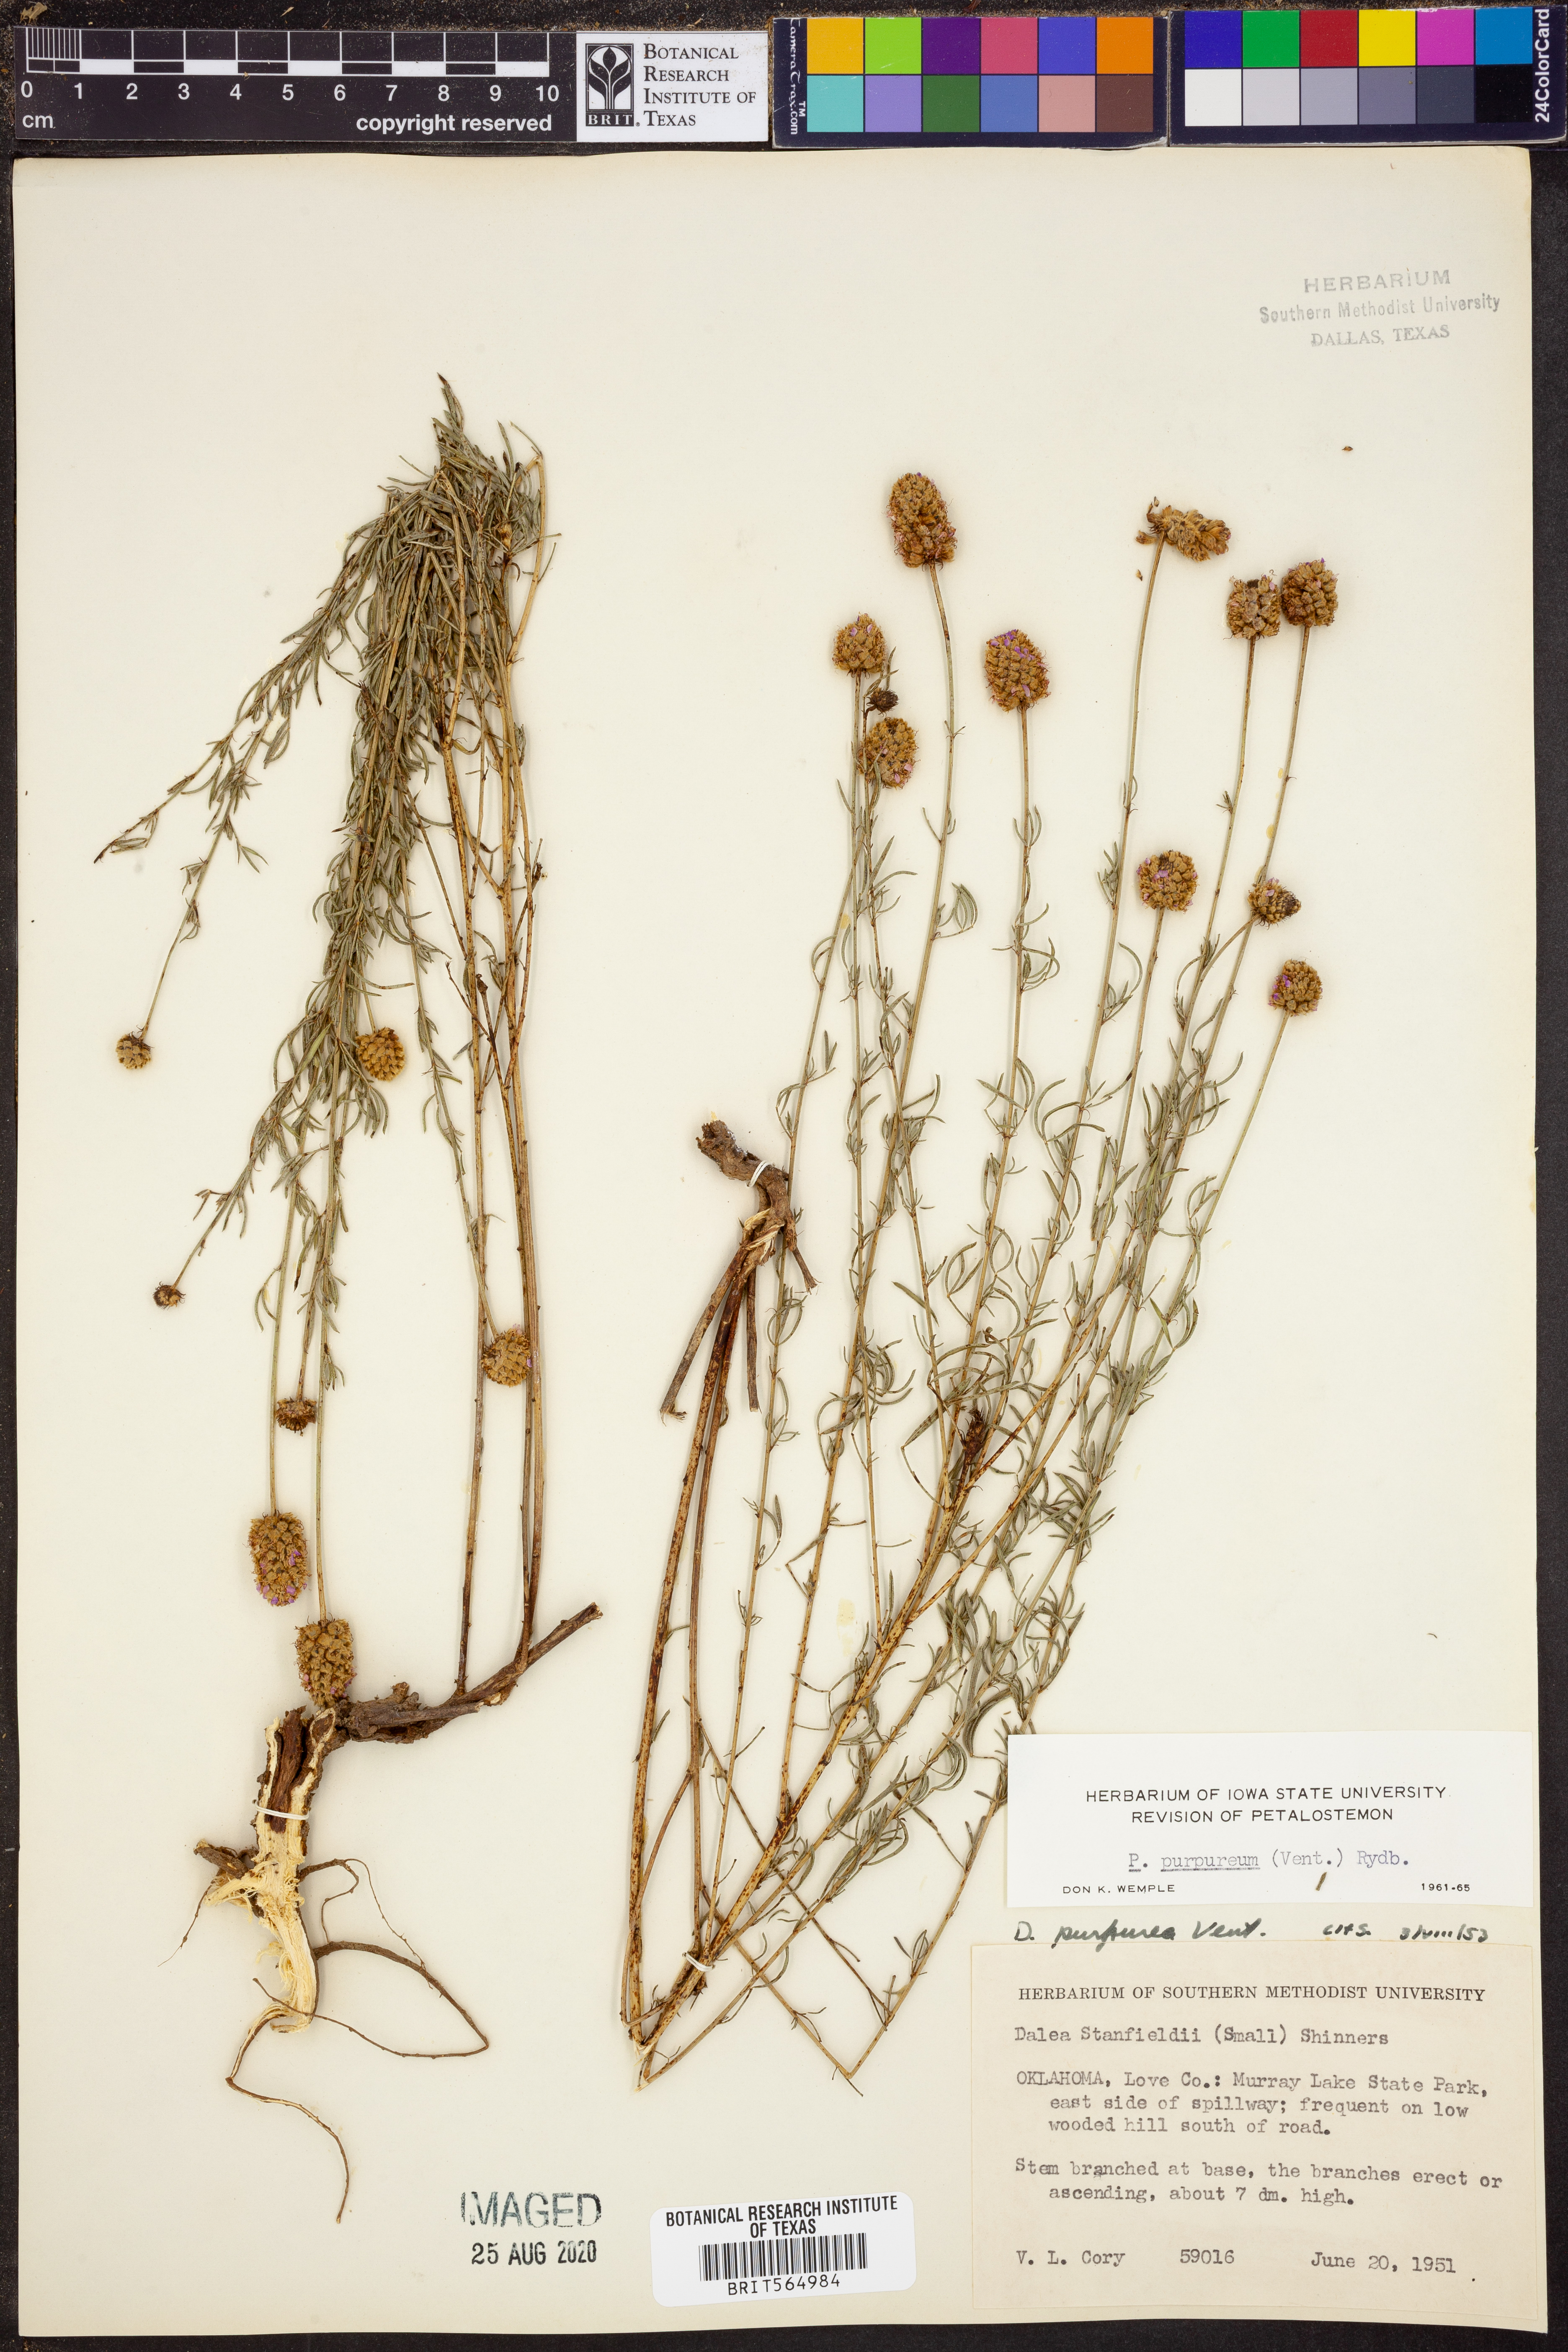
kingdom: Plantae
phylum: Tracheophyta
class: Magnoliopsida
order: Fabales
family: Fabaceae
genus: Dalea
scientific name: Dalea purpurea
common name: Purple prairie-clover
